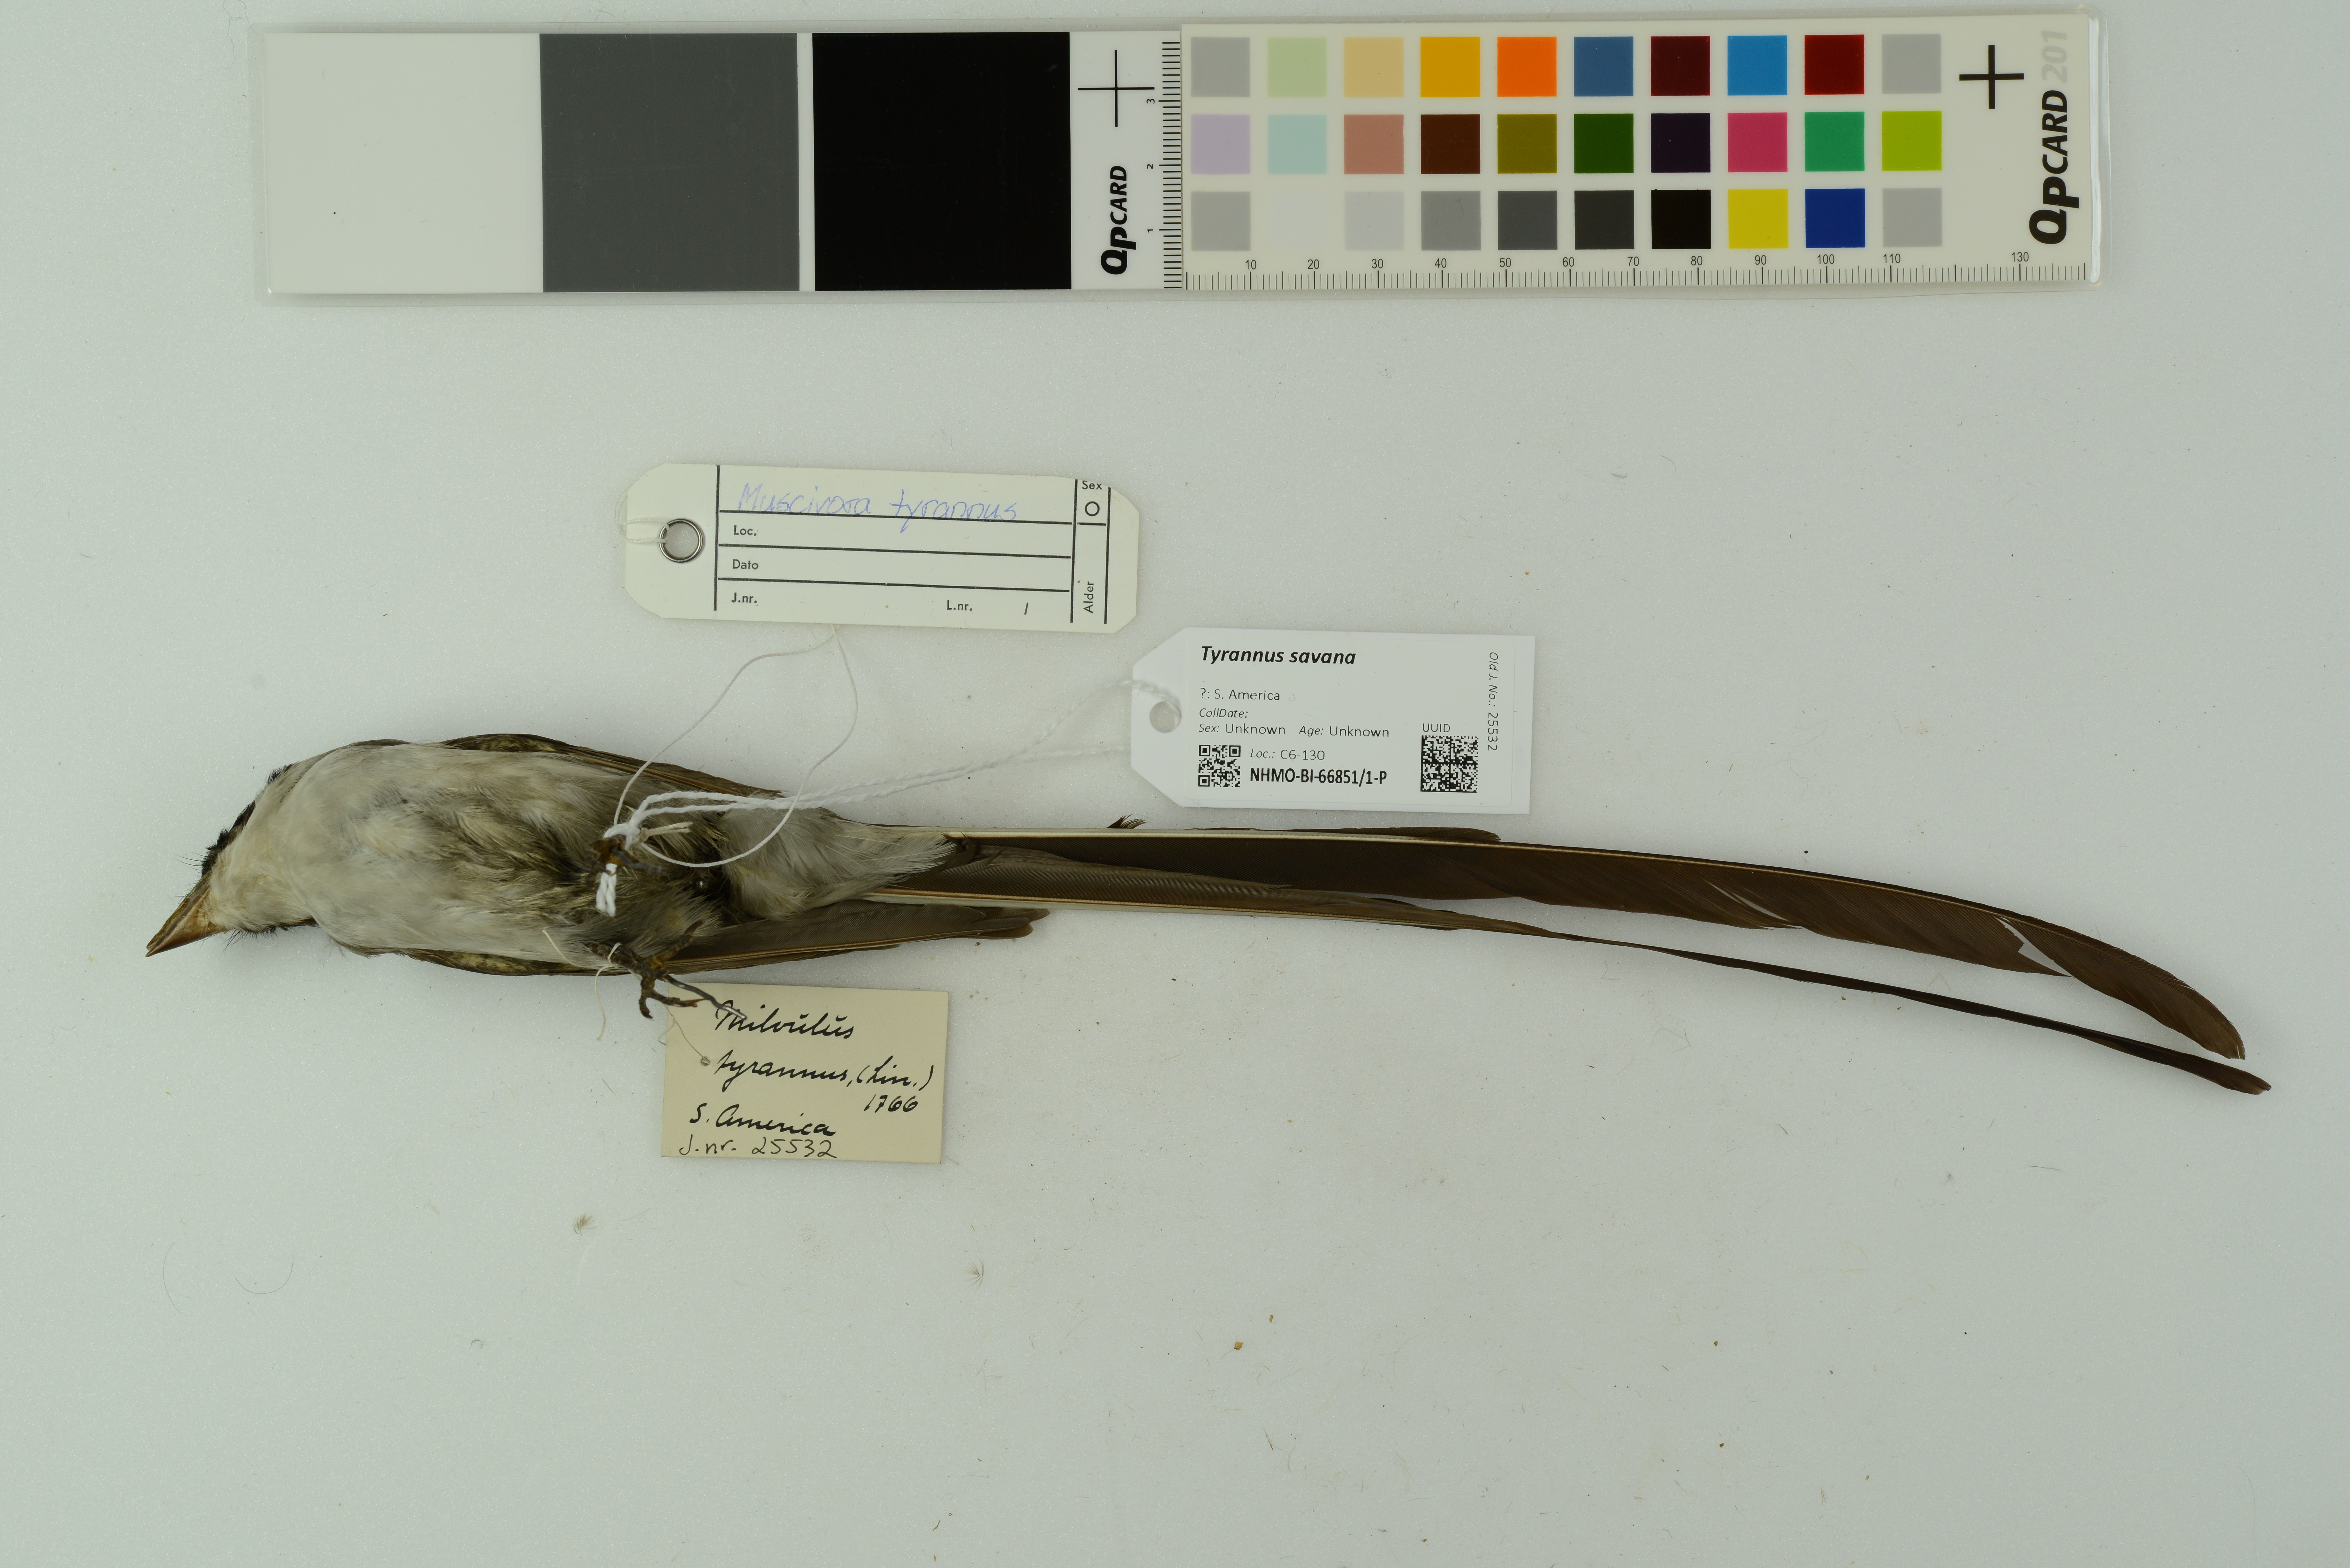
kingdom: Animalia
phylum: Chordata
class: Aves
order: Passeriformes
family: Tyrannidae
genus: Tyrannus
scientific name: Tyrannus savana
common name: Fork-tailed flycatcher
